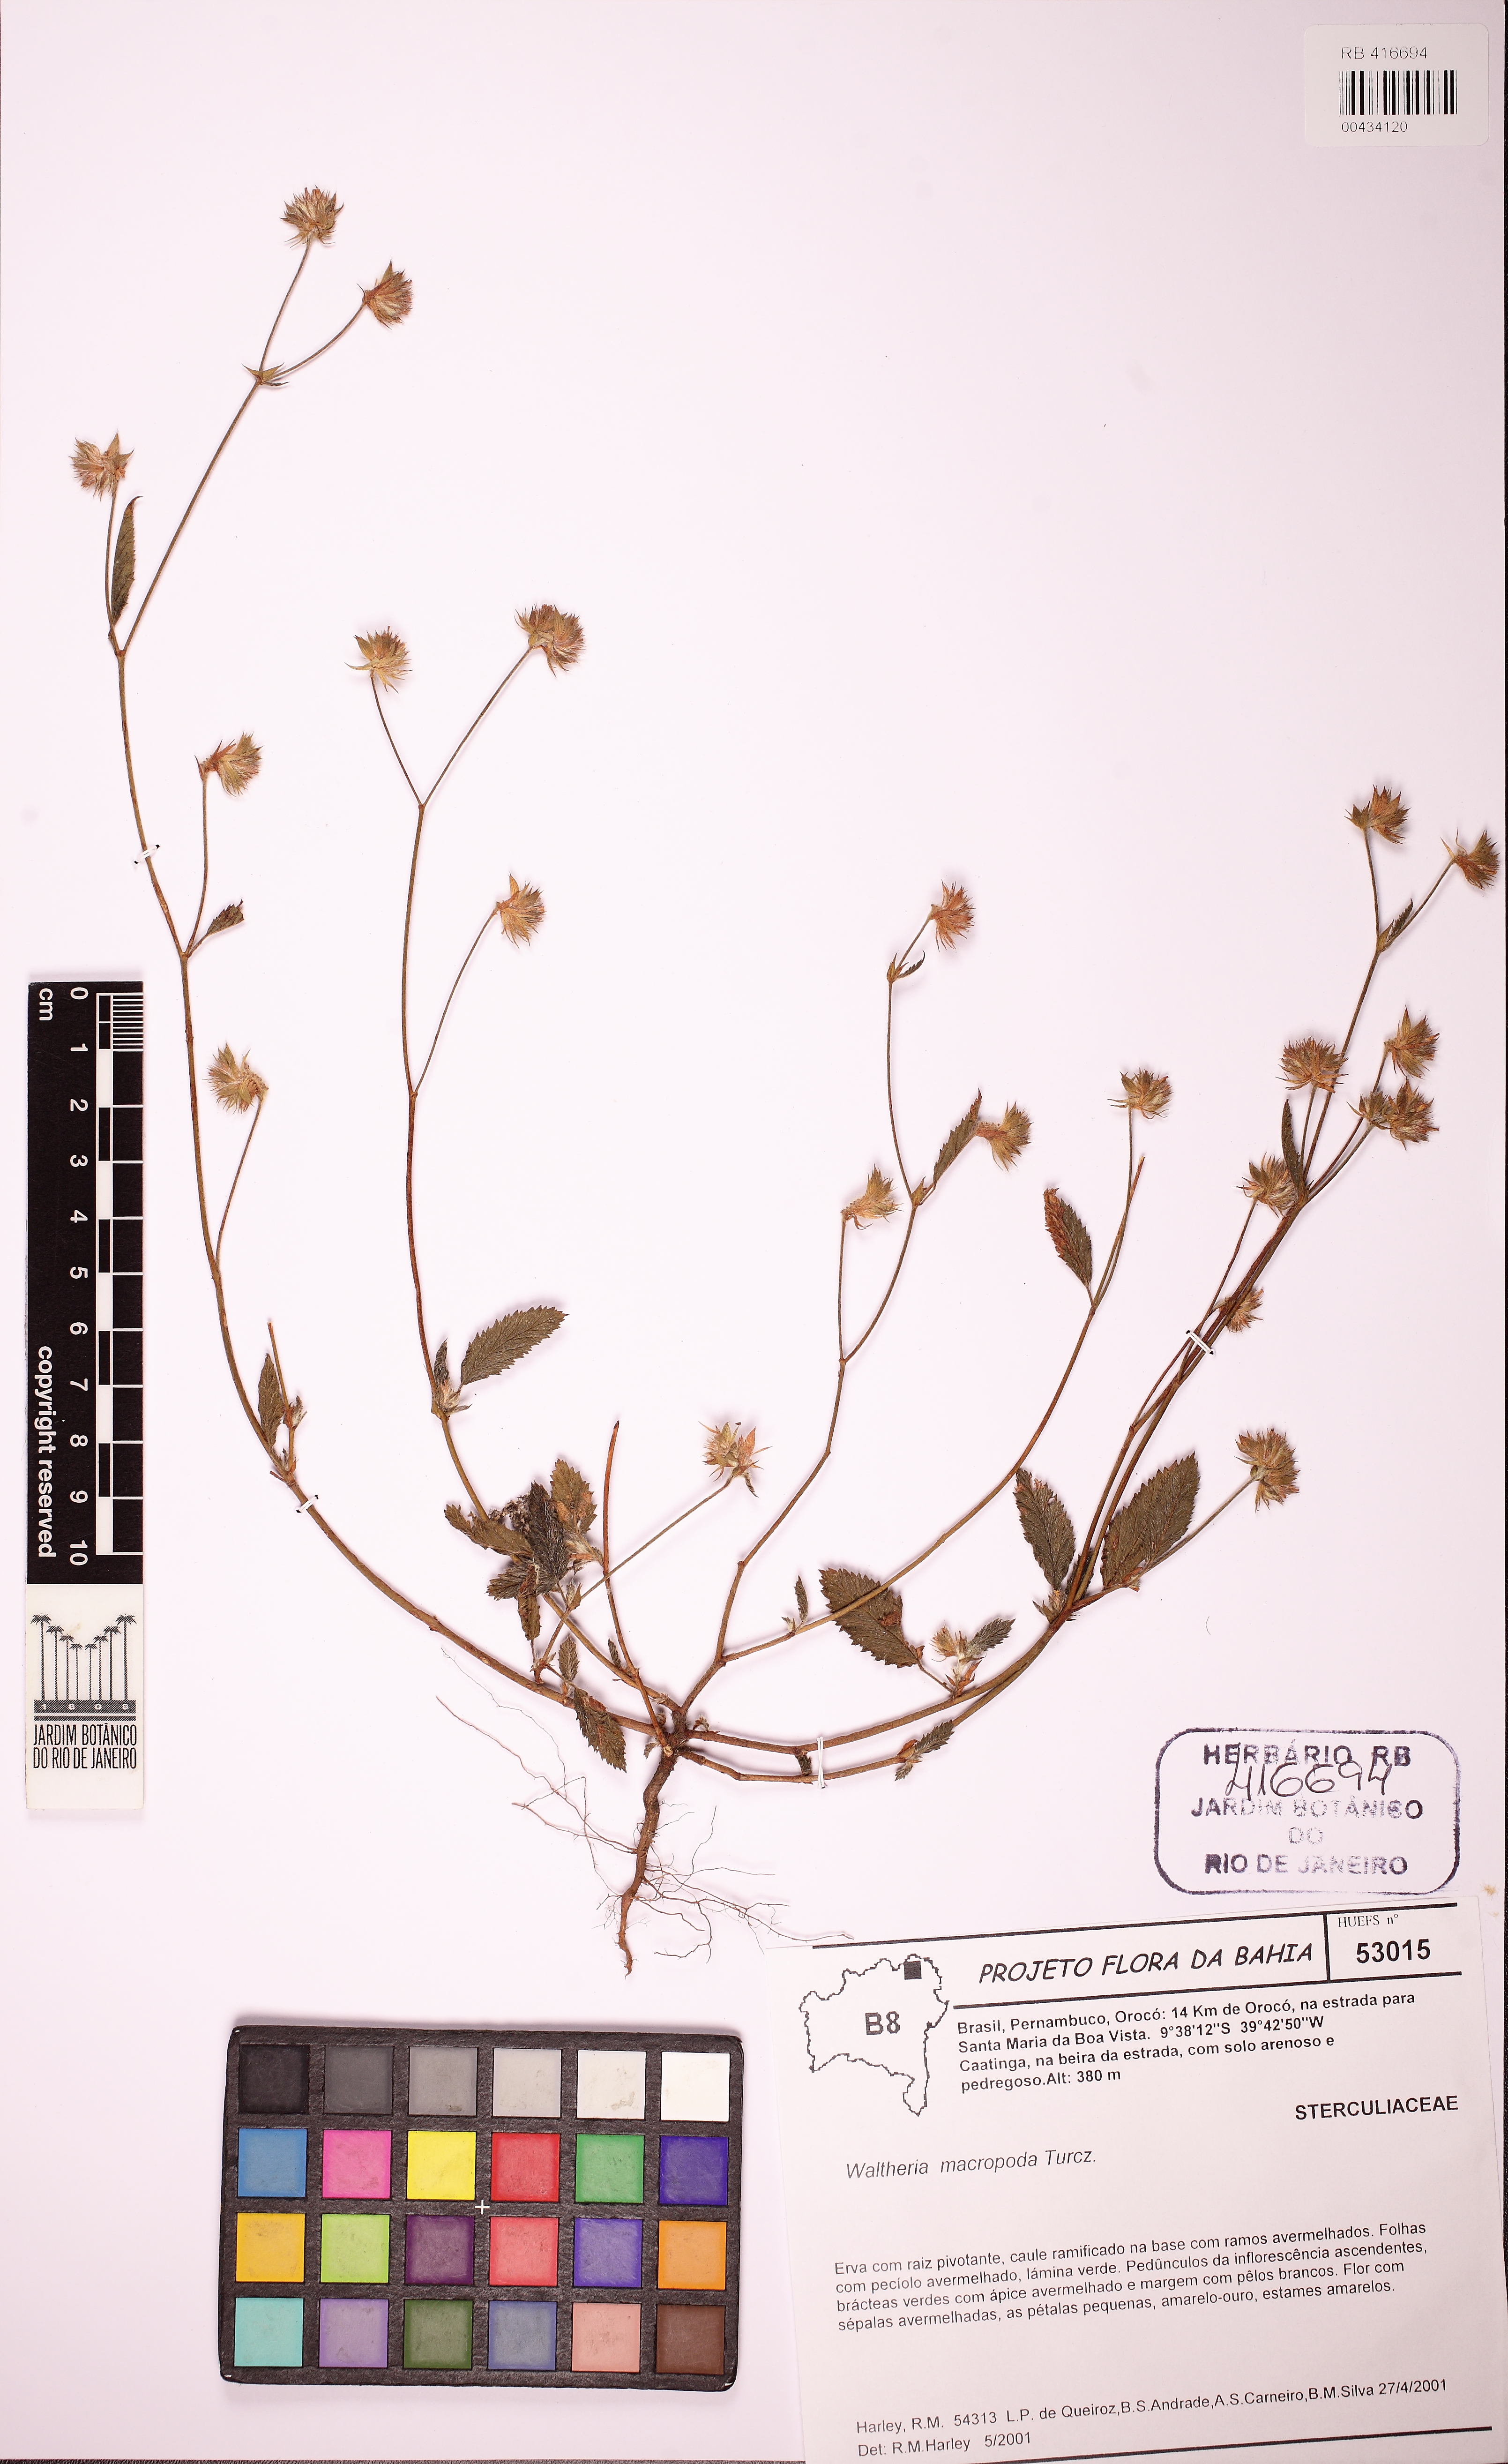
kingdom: Plantae
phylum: Tracheophyta
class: Magnoliopsida
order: Malvales
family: Malvaceae
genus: Waltheria
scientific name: Waltheria bracteosa
